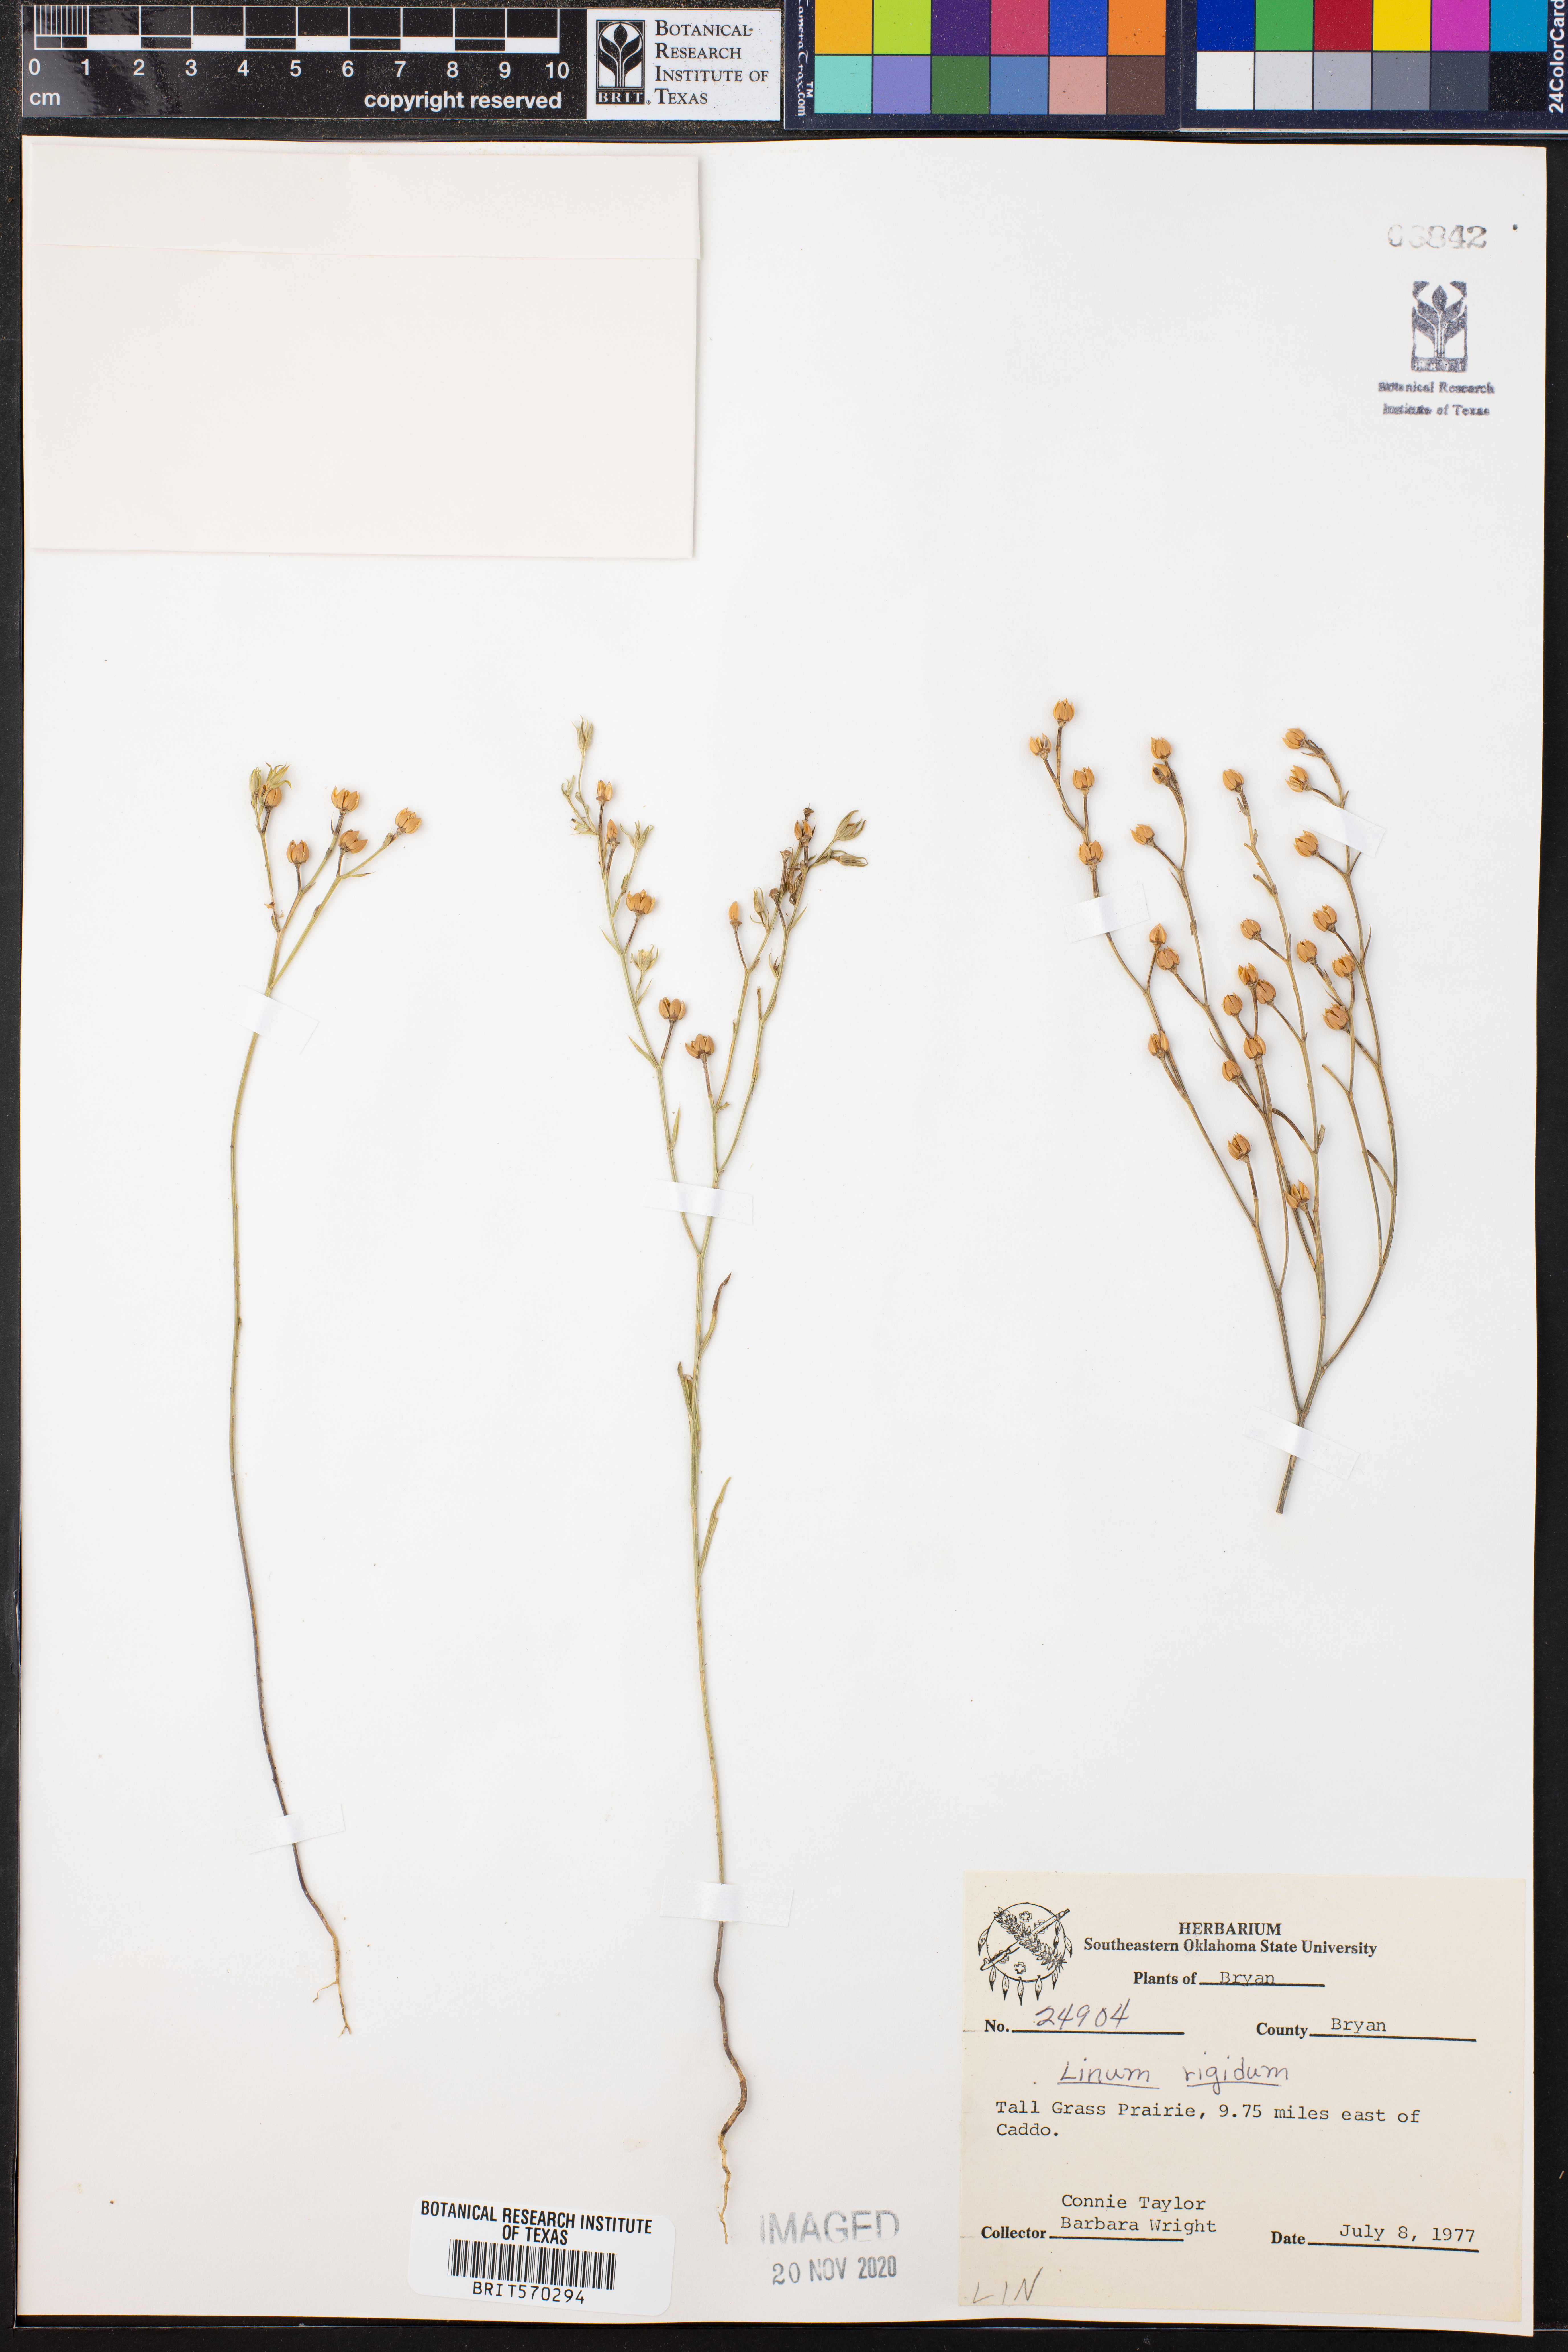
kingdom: Plantae
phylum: Tracheophyta
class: Magnoliopsida
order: Malpighiales
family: Linaceae
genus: Linum
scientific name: Linum rigidum
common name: Stiff-stem flax
